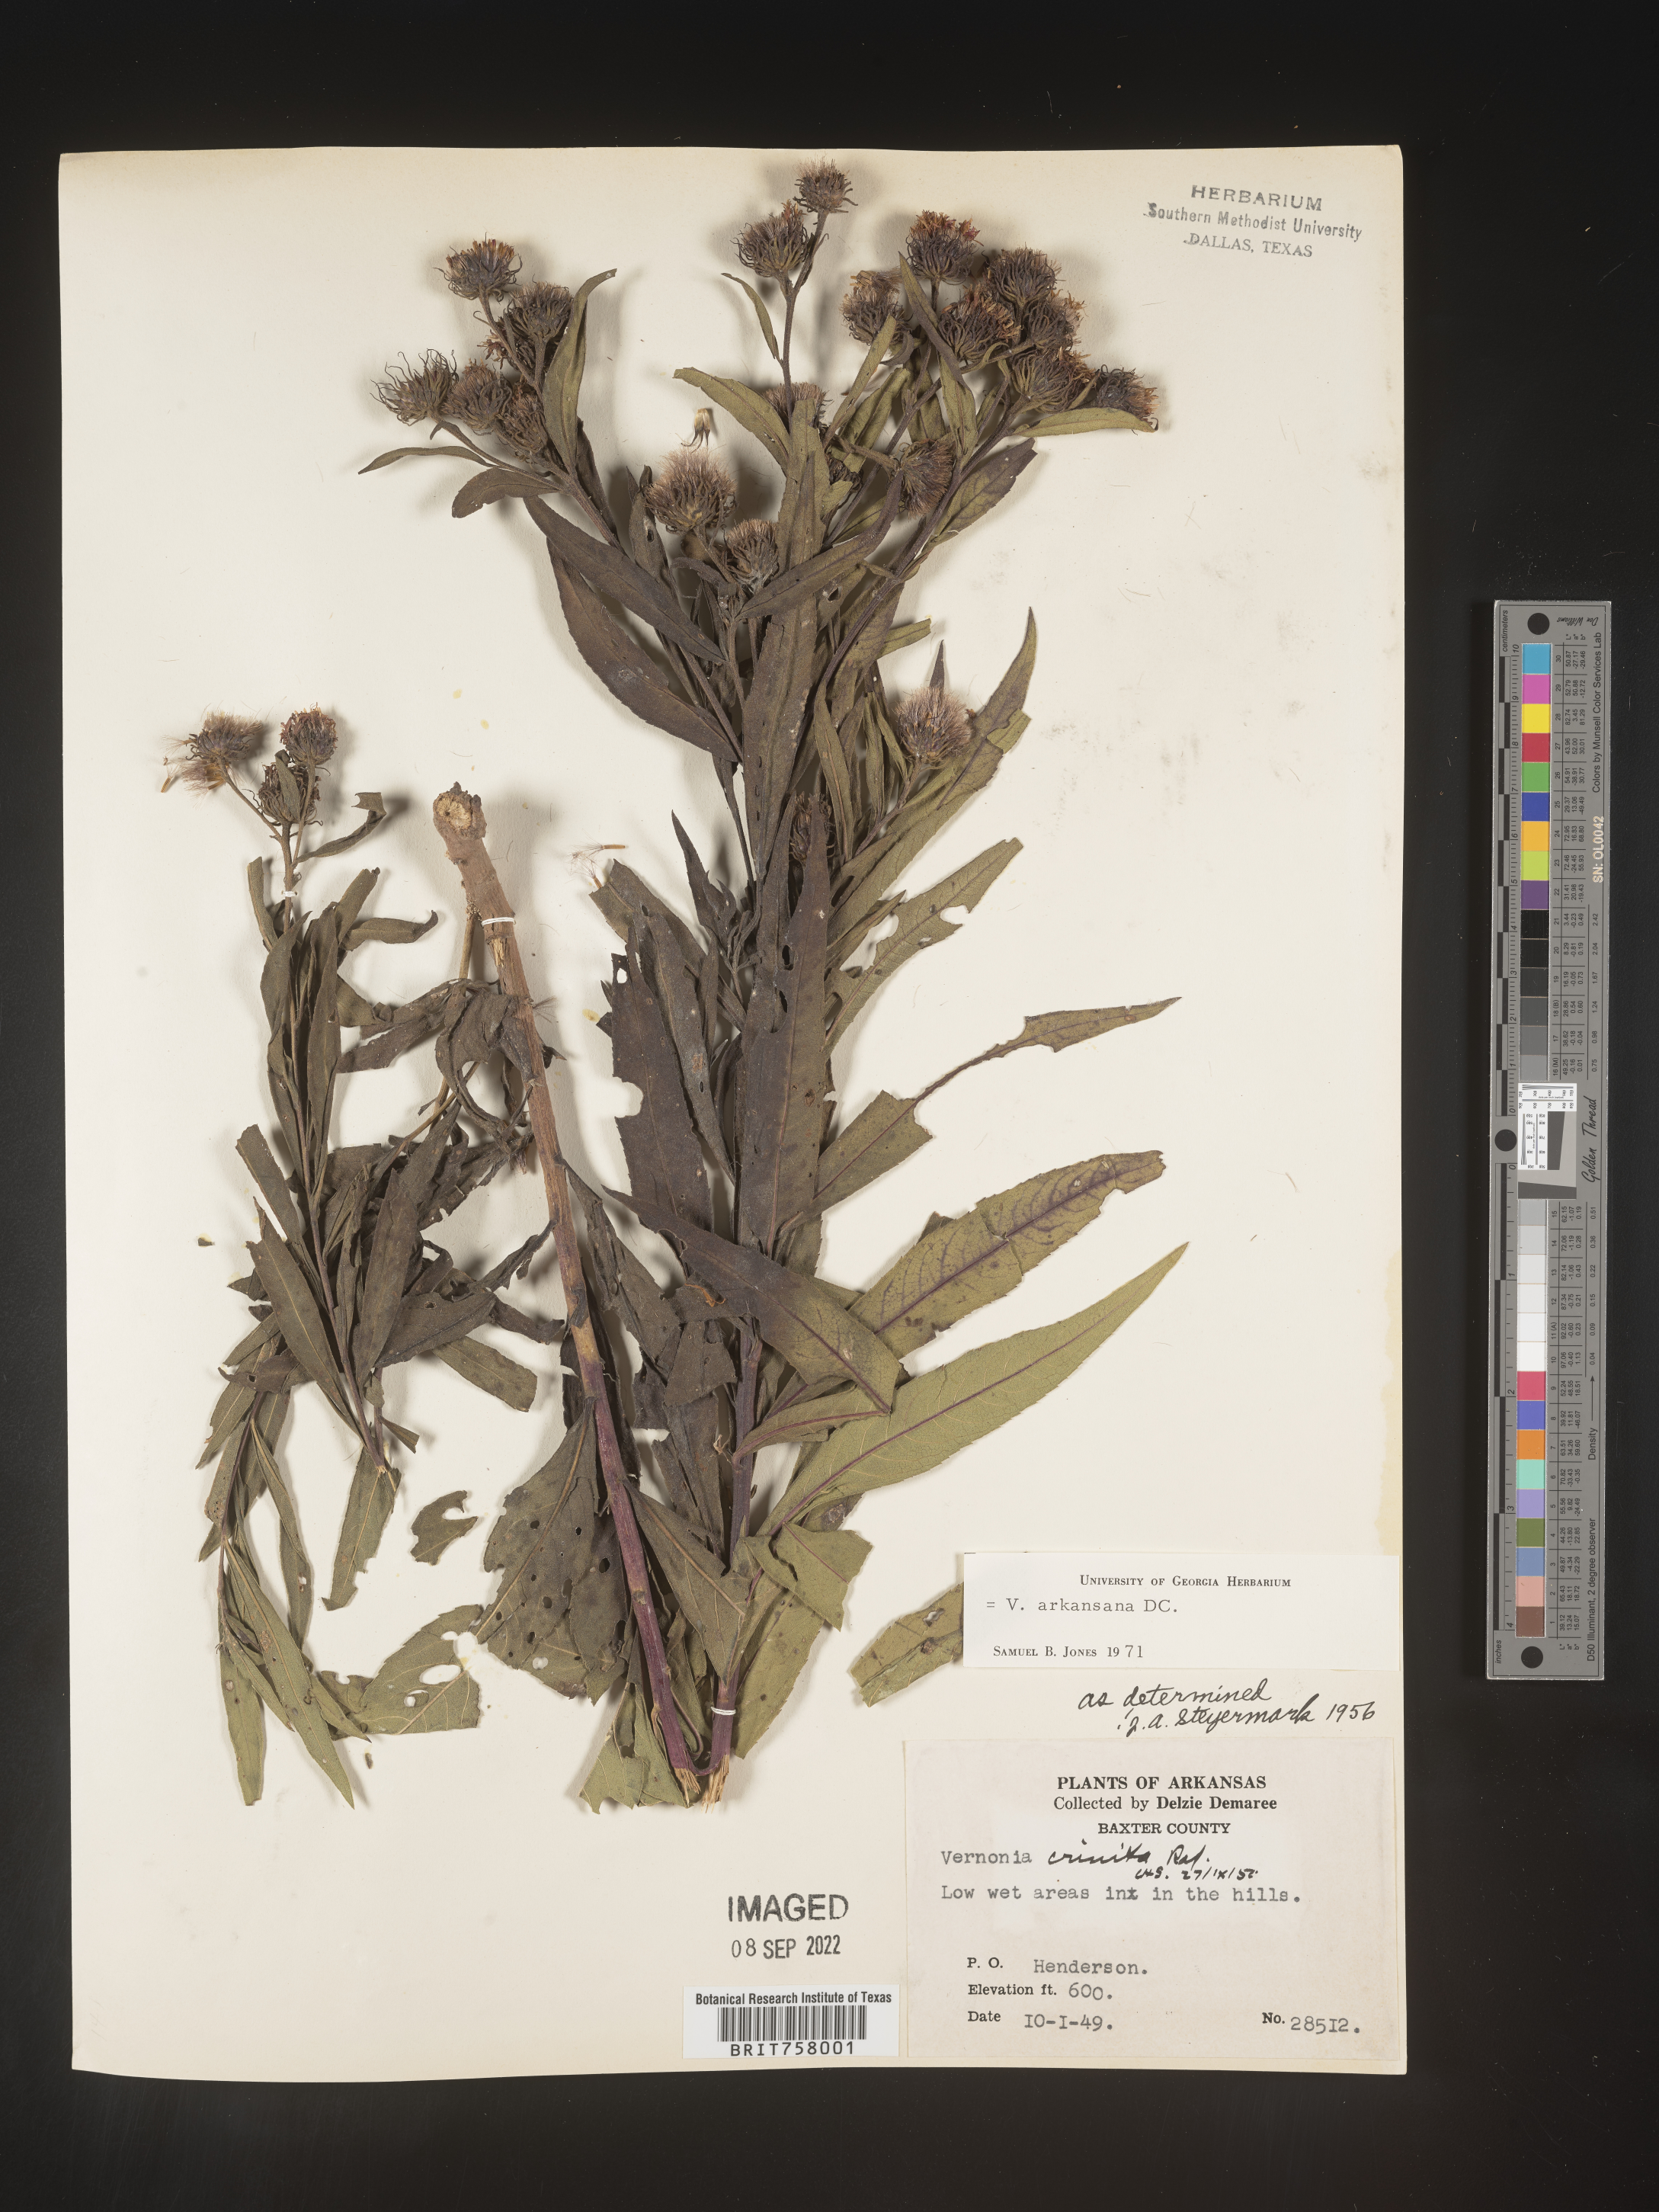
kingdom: Plantae
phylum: Tracheophyta
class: Magnoliopsida
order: Asterales
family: Asteraceae
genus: Vernonia
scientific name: Vernonia arkansana
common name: Ozark ironweed
